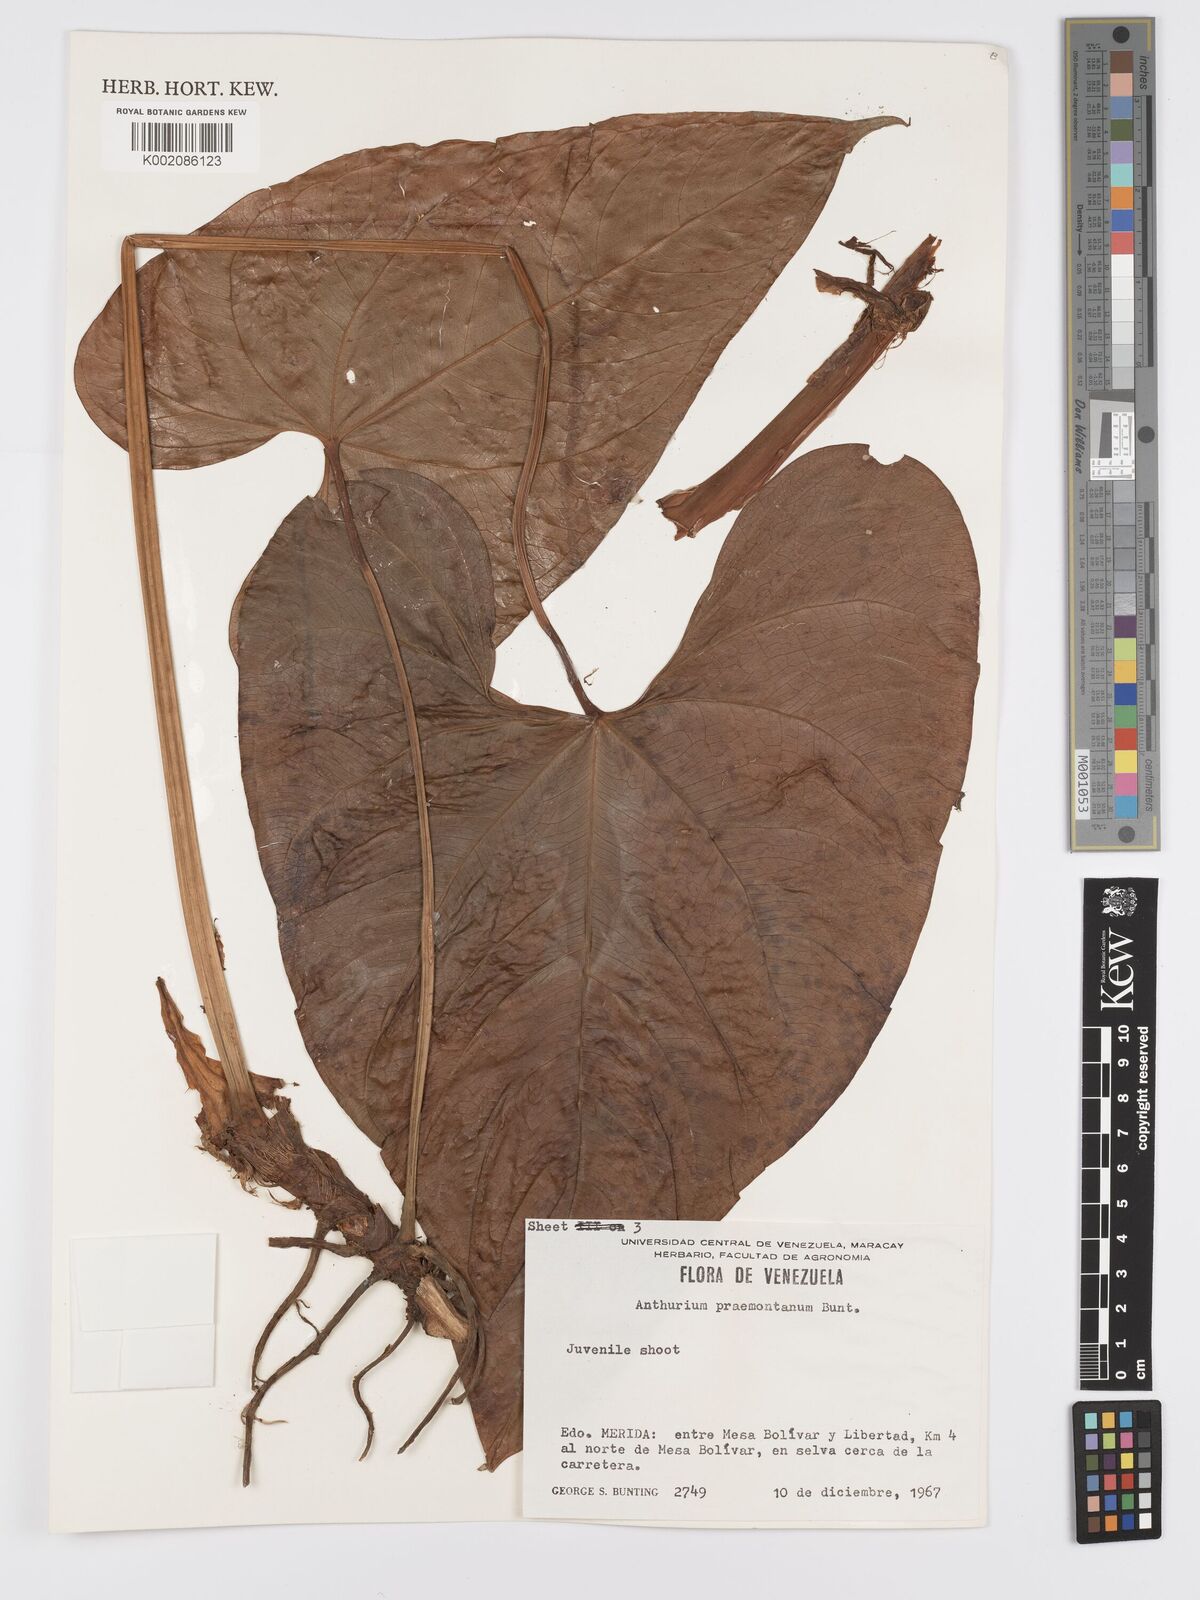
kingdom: Plantae
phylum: Tracheophyta
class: Liliopsida
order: Alismatales
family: Araceae
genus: Anthurium
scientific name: Anthurium formosum
